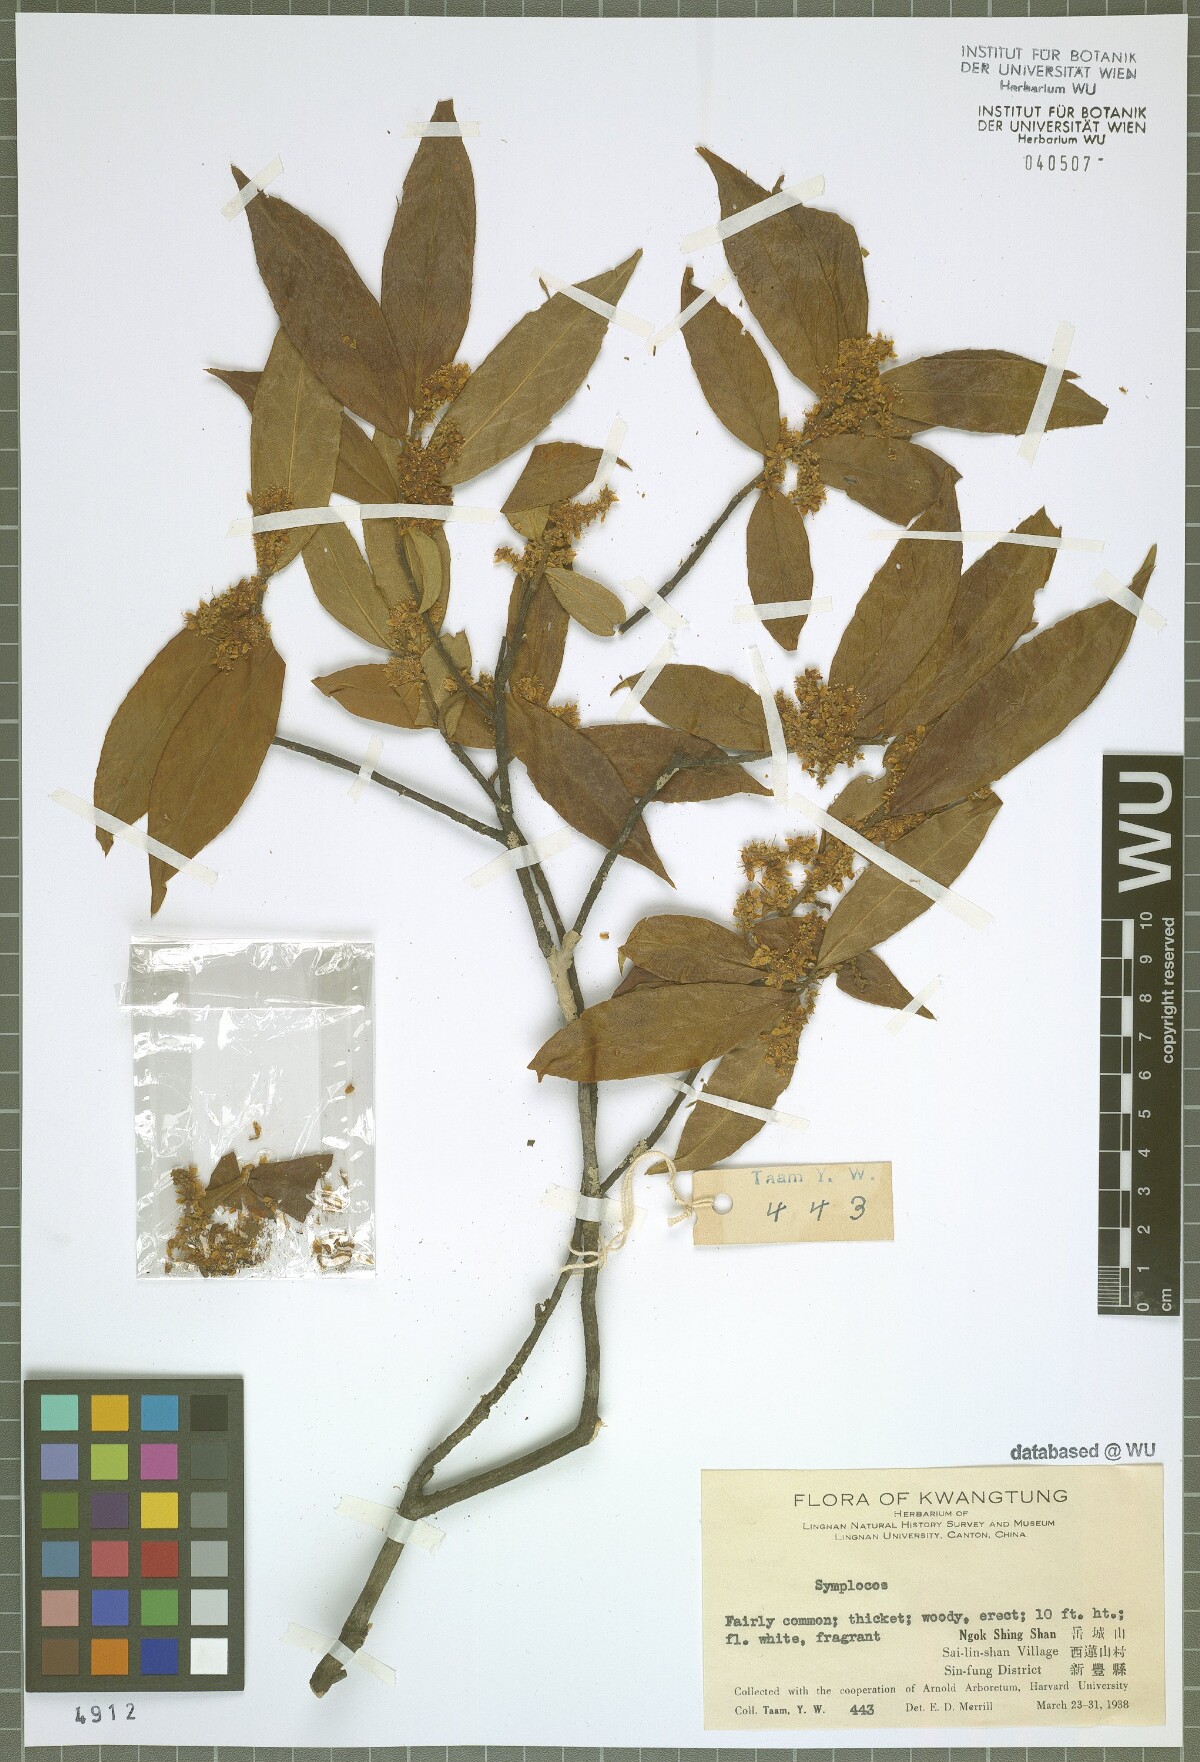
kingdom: Plantae
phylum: Tracheophyta
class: Magnoliopsida
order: Ericales
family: Symplocaceae
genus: Symplocos
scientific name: Symplocos
